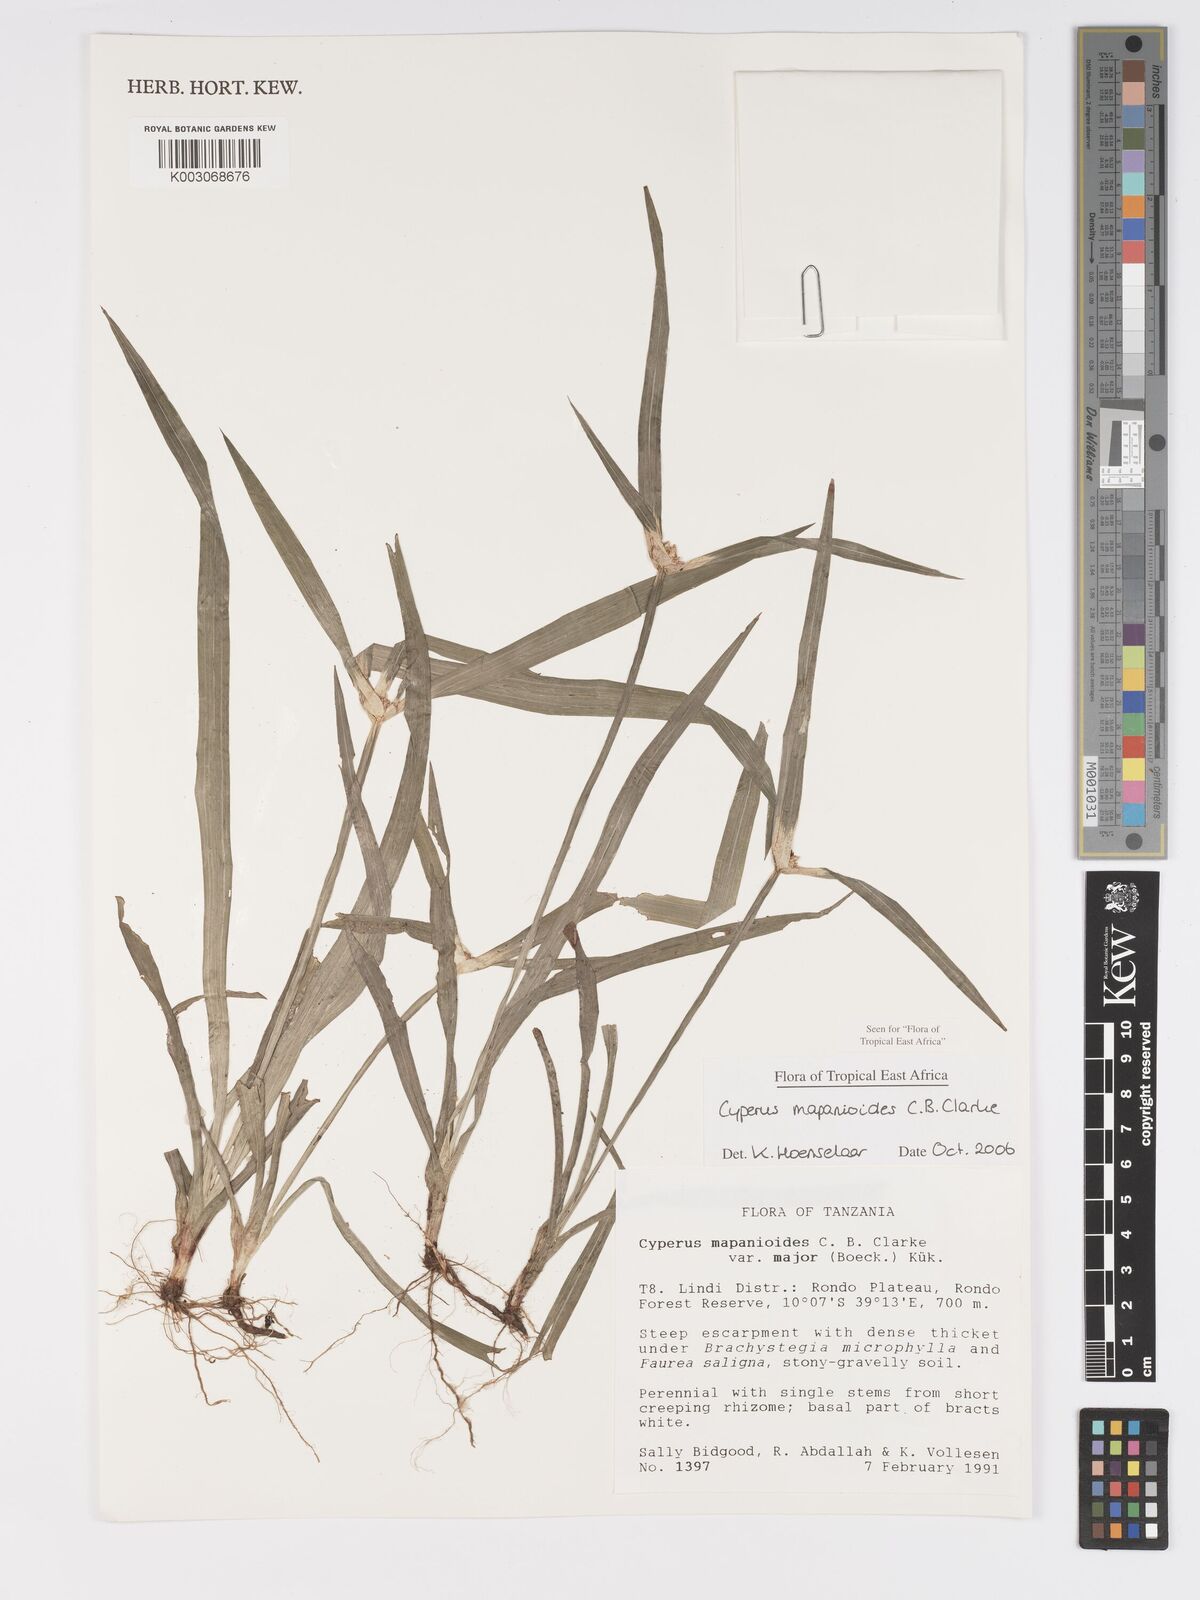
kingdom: Plantae
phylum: Tracheophyta
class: Liliopsida
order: Poales
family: Cyperaceae
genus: Cyperus
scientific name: Cyperus mapanioides
